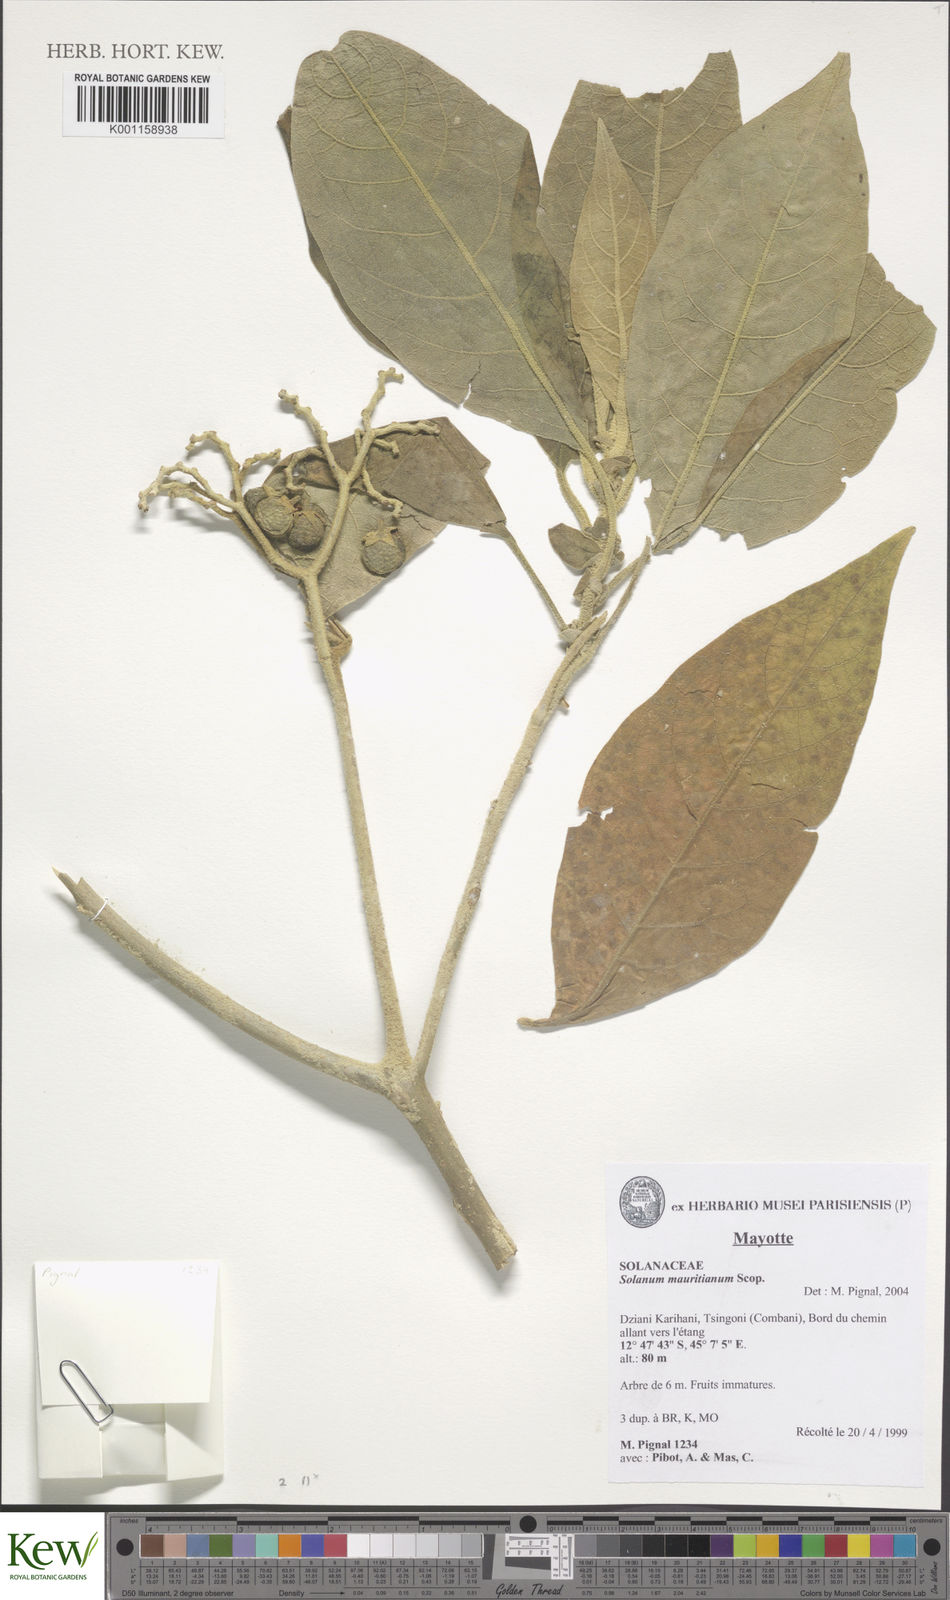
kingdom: Plantae
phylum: Tracheophyta
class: Magnoliopsida
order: Solanales
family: Solanaceae
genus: Solanum
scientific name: Solanum mauritianum
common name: Earleaf nightshade
